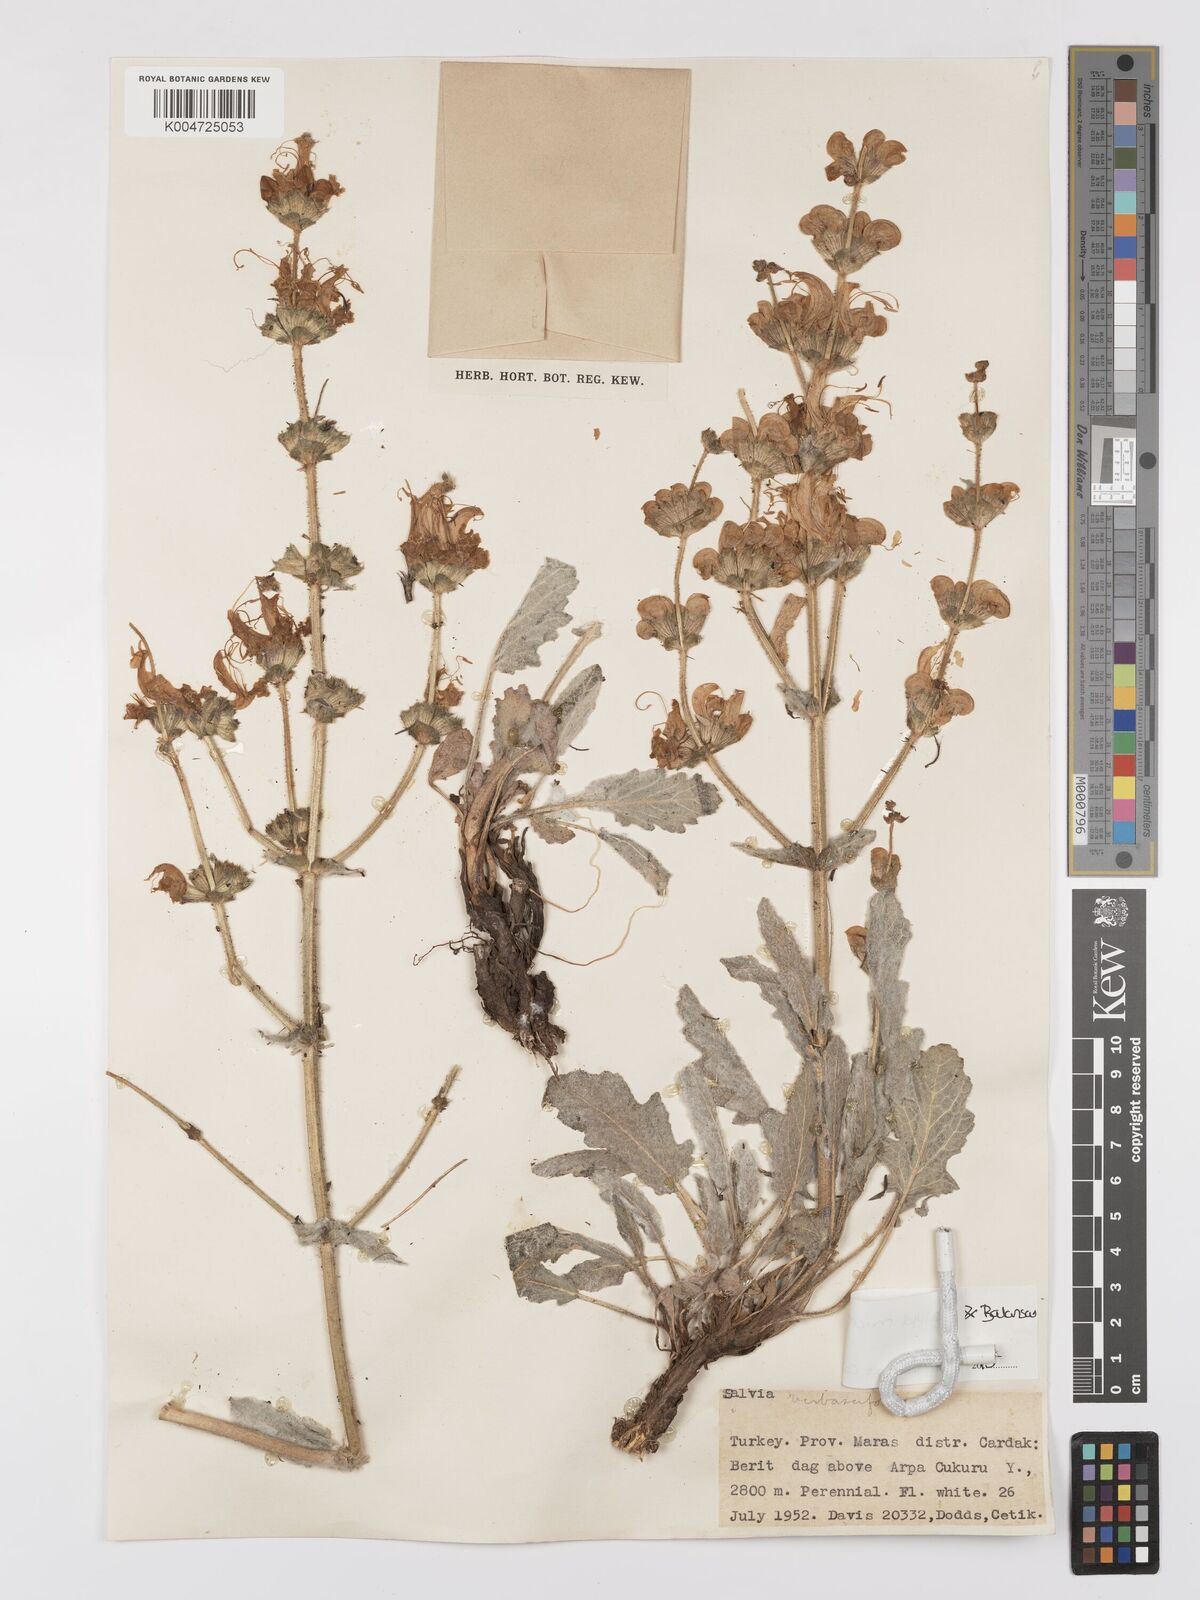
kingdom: Plantae
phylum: Tracheophyta
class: Magnoliopsida
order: Lamiales
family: Lamiaceae
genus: Salvia
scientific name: Salvia microstegia
